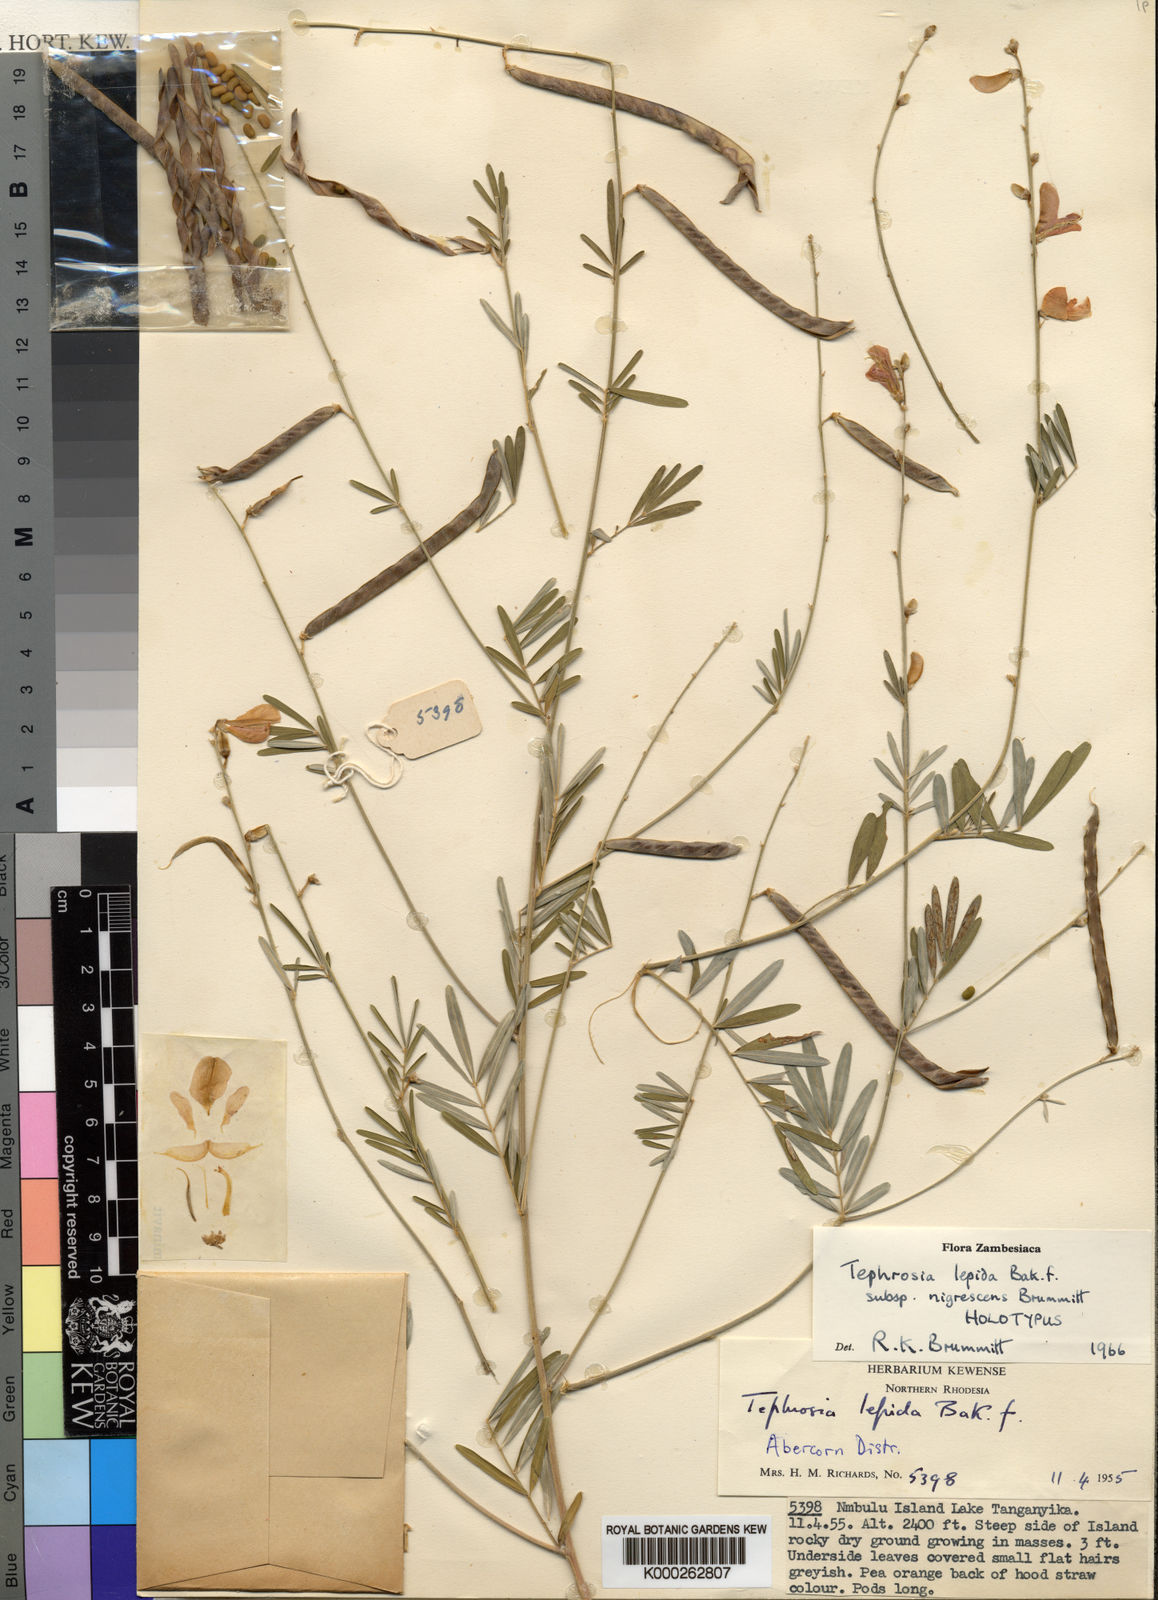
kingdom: Plantae
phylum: Tracheophyta
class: Magnoliopsida
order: Fabales
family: Fabaceae
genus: Tephrosia
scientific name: Tephrosia lepida
